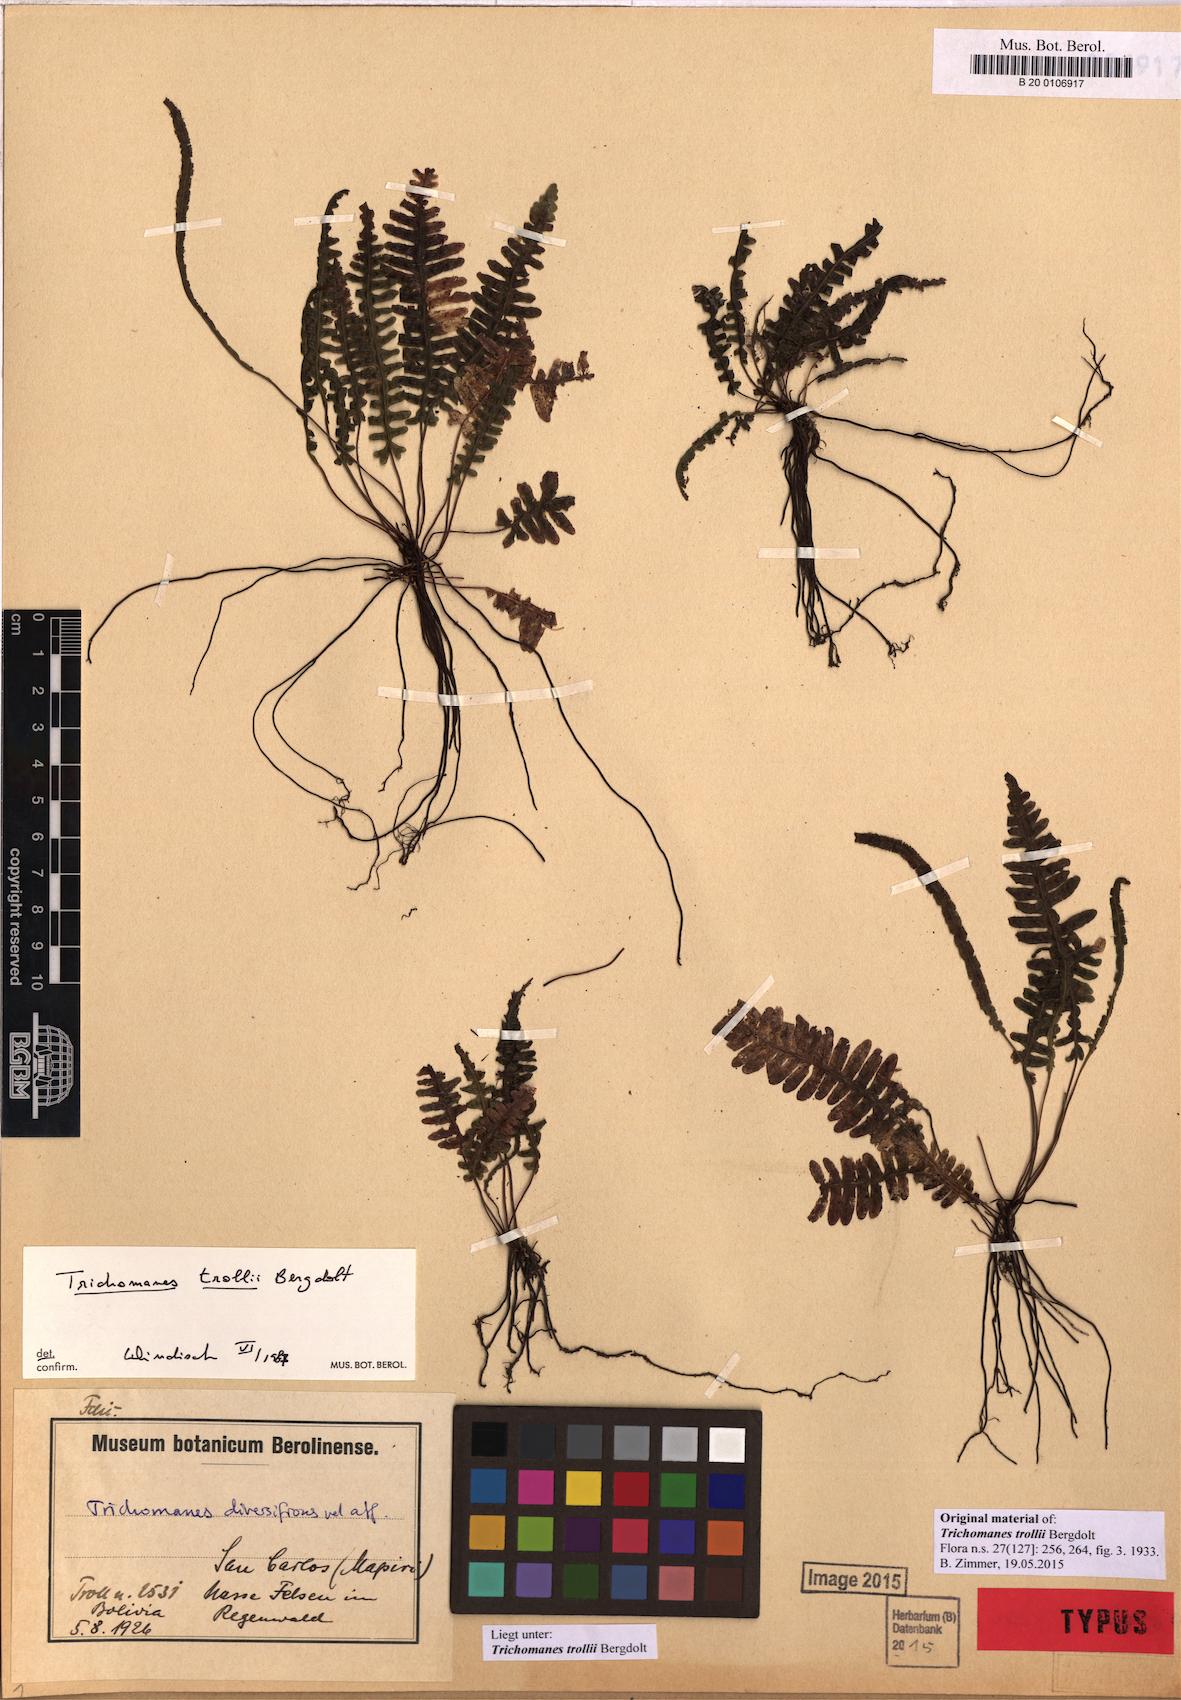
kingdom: Plantae
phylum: Tracheophyta
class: Polypodiopsida
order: Hymenophyllales
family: Hymenophyllaceae
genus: Trichomanes
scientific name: Trichomanes trollii
